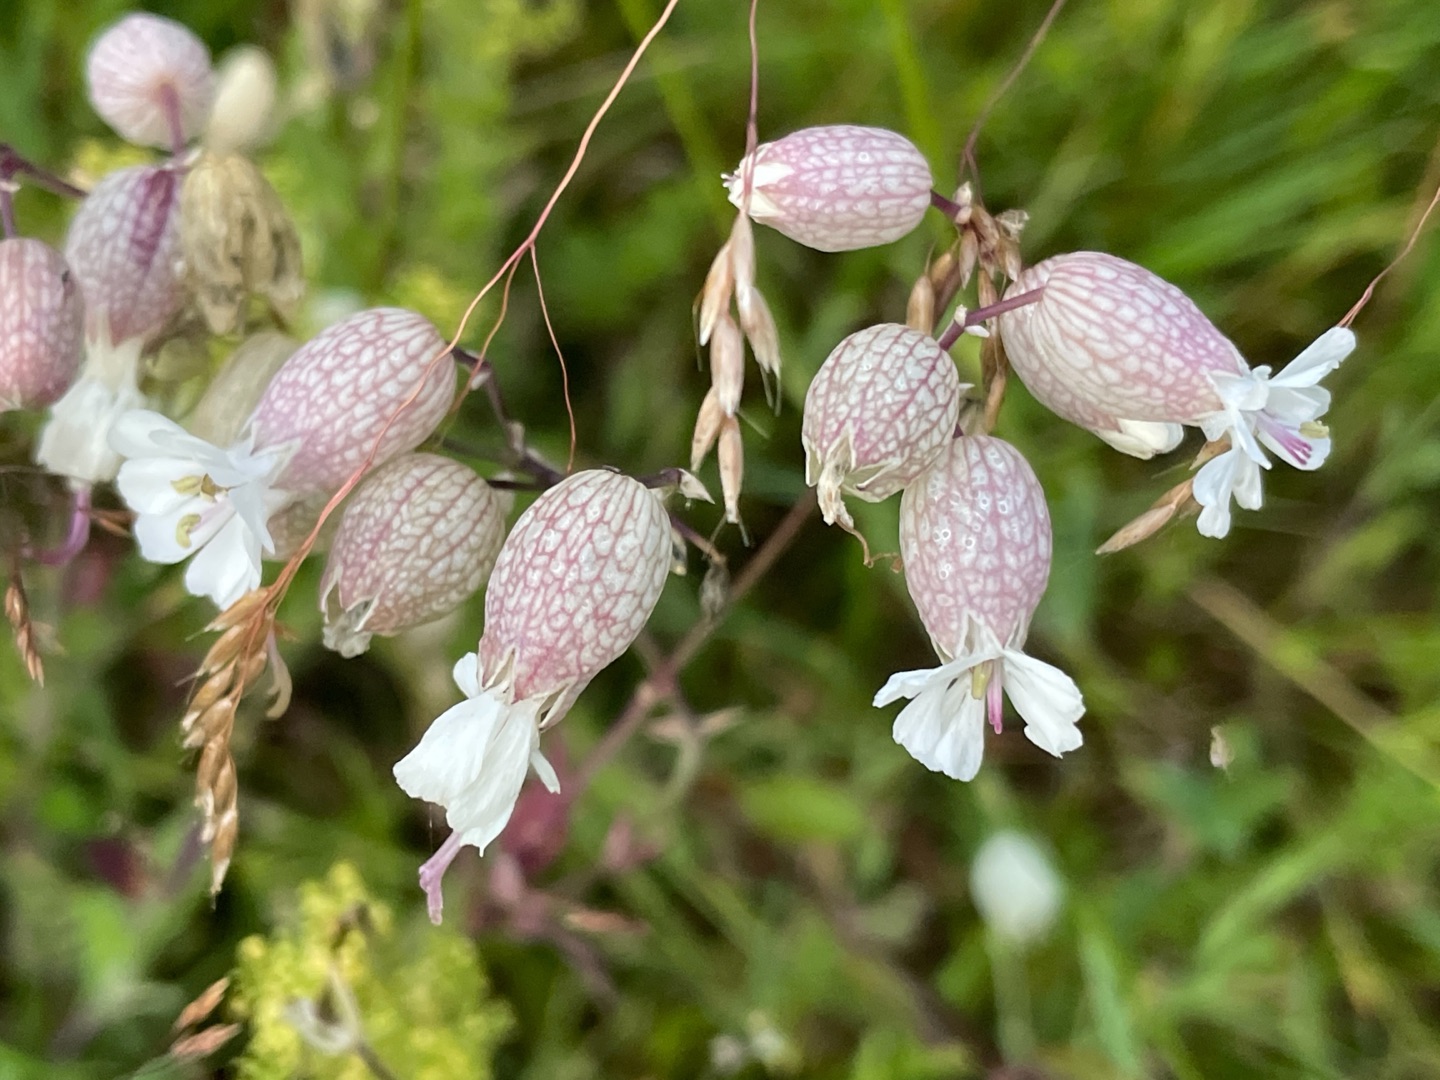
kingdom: Plantae
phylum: Tracheophyta
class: Magnoliopsida
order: Caryophyllales
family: Caryophyllaceae
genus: Silene
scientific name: Silene vulgaris
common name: Blæresmælde
